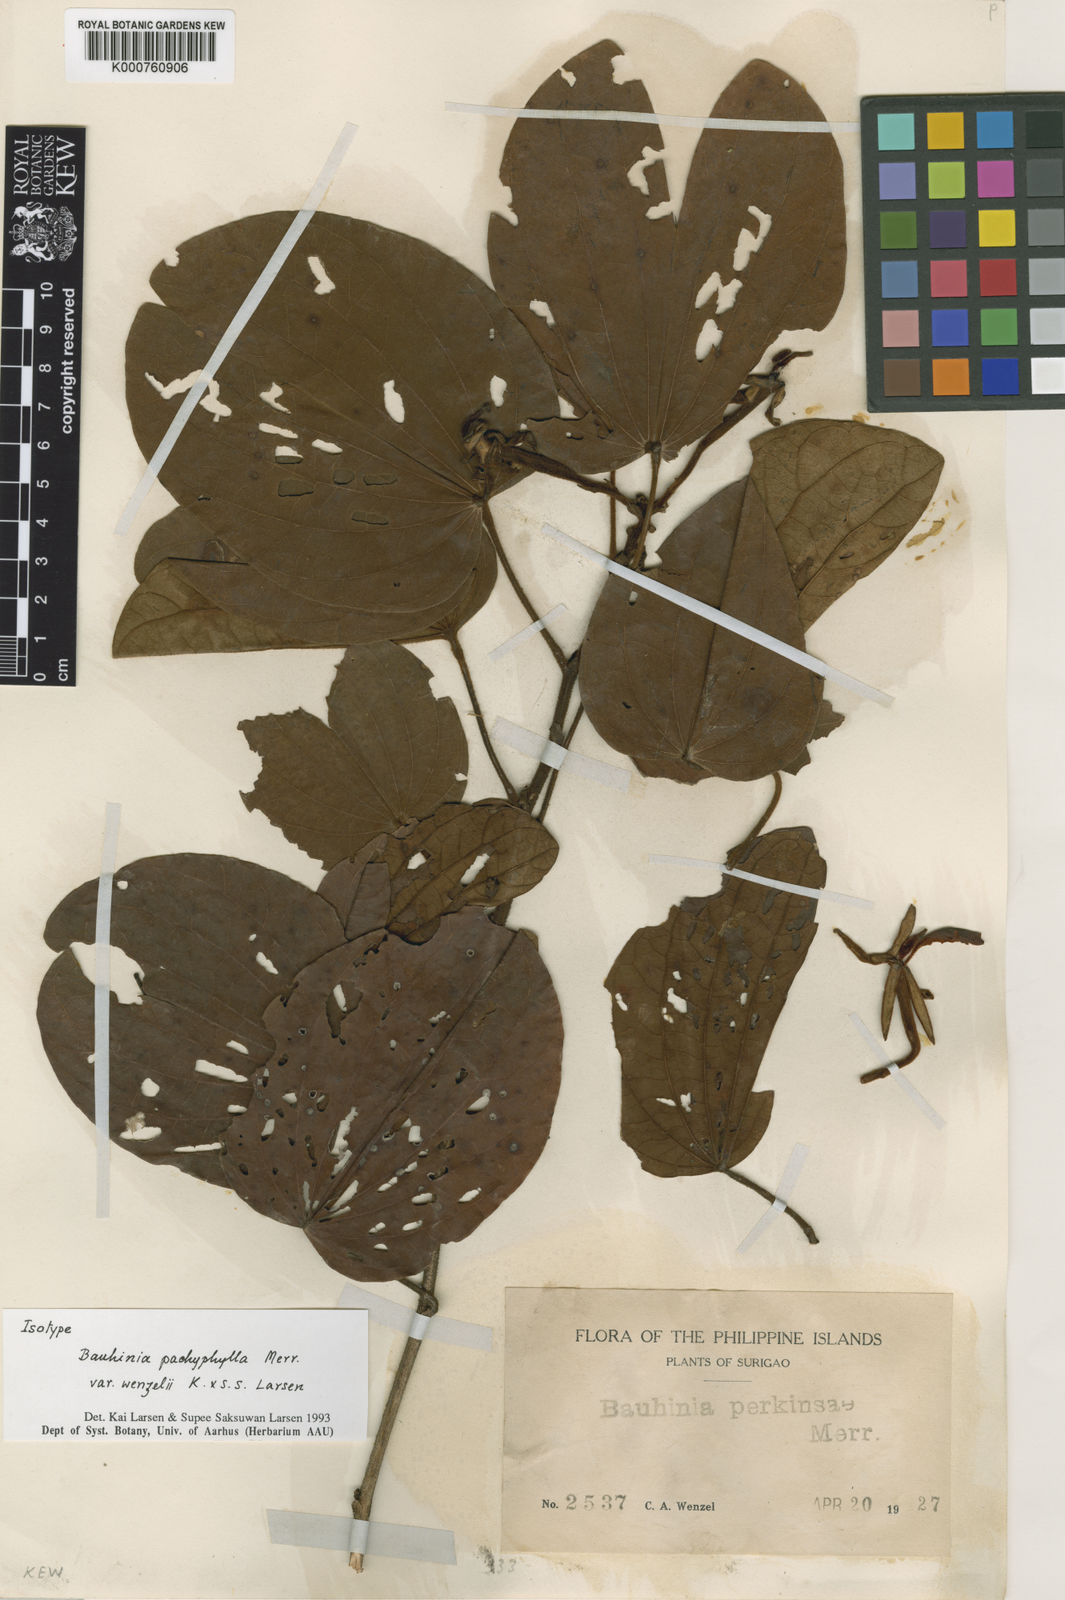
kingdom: Plantae
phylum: Tracheophyta
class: Magnoliopsida
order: Fabales
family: Fabaceae
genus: Phanera
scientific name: Phanera pachyphylla
